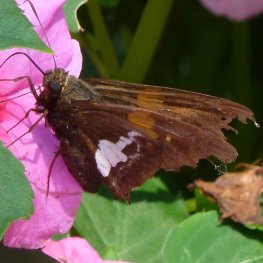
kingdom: Animalia
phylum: Arthropoda
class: Insecta
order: Lepidoptera
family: Hesperiidae
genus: Epargyreus
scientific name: Epargyreus clarus
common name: Silver-spotted Skipper
